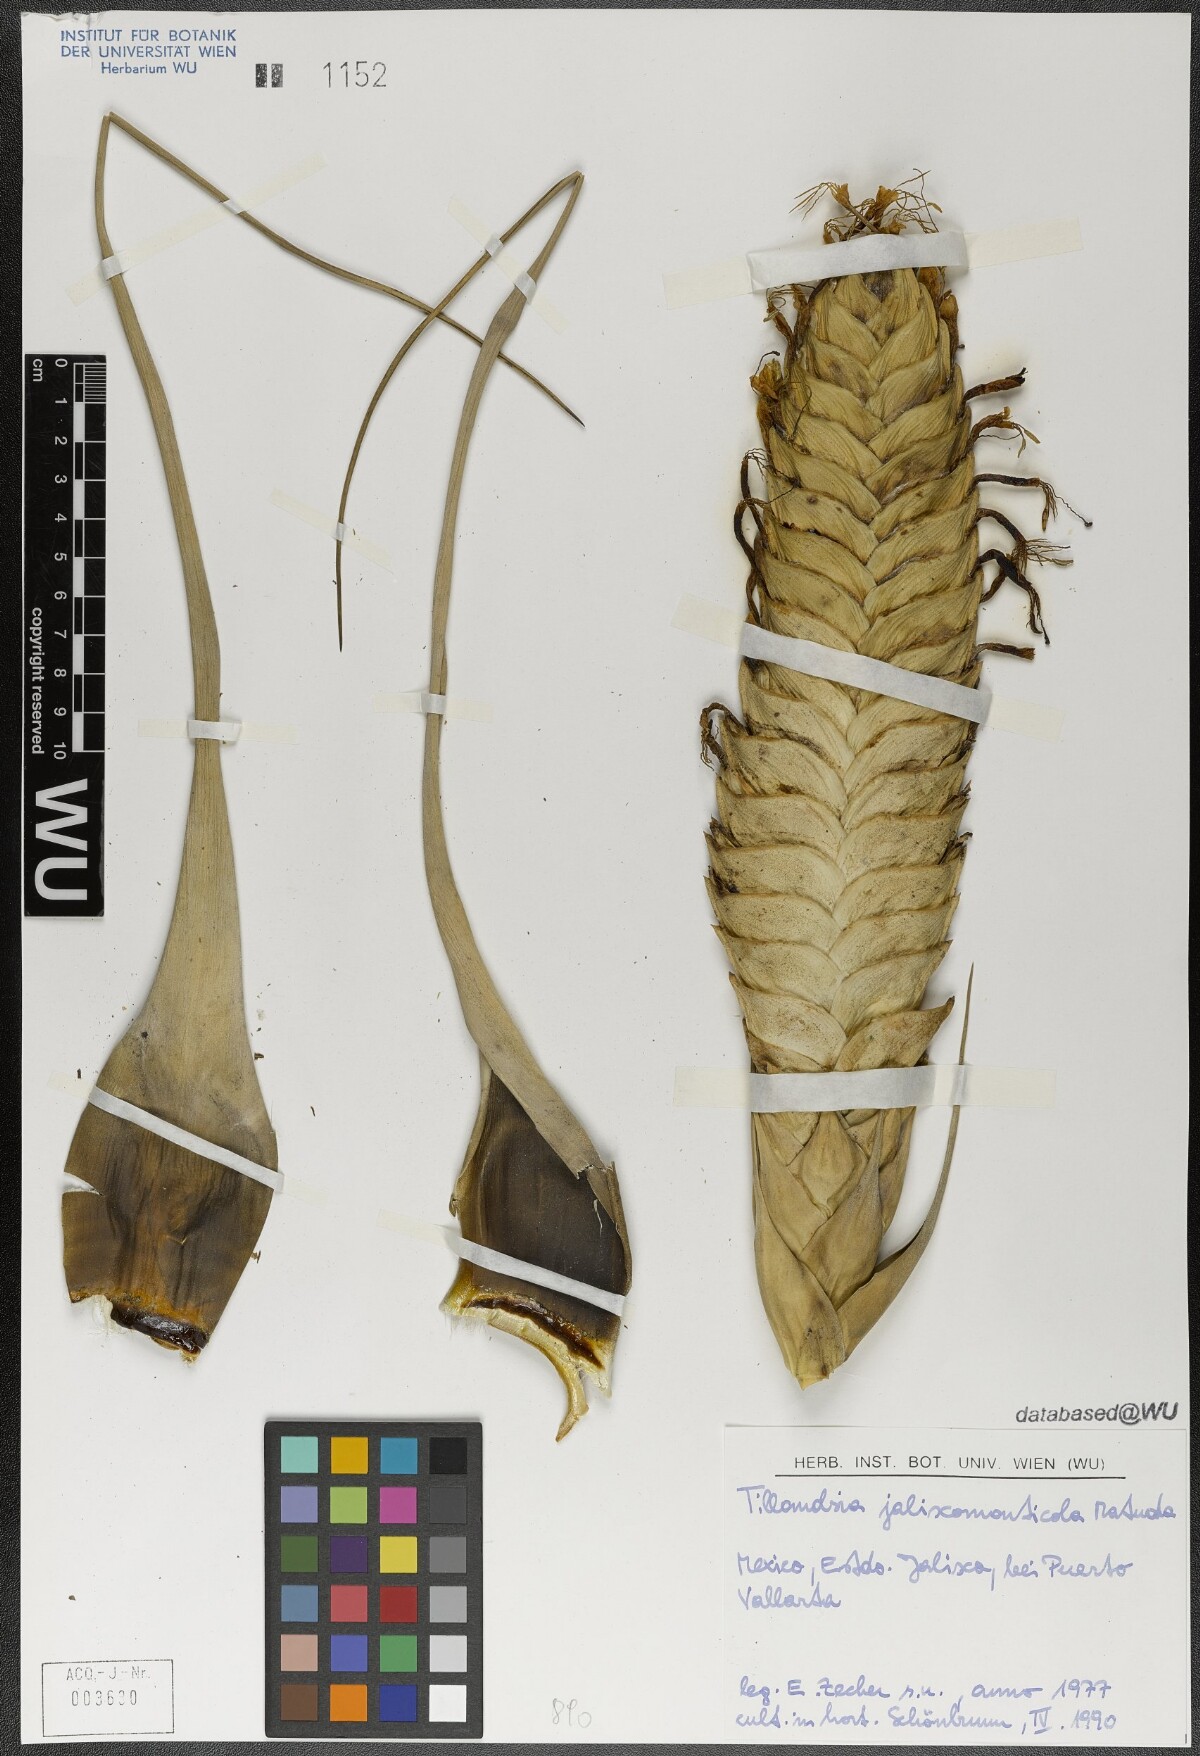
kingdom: Plantae
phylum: Tracheophyta
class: Liliopsida
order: Poales
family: Bromeliaceae
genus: Tillandsia
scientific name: Tillandsia compressa
